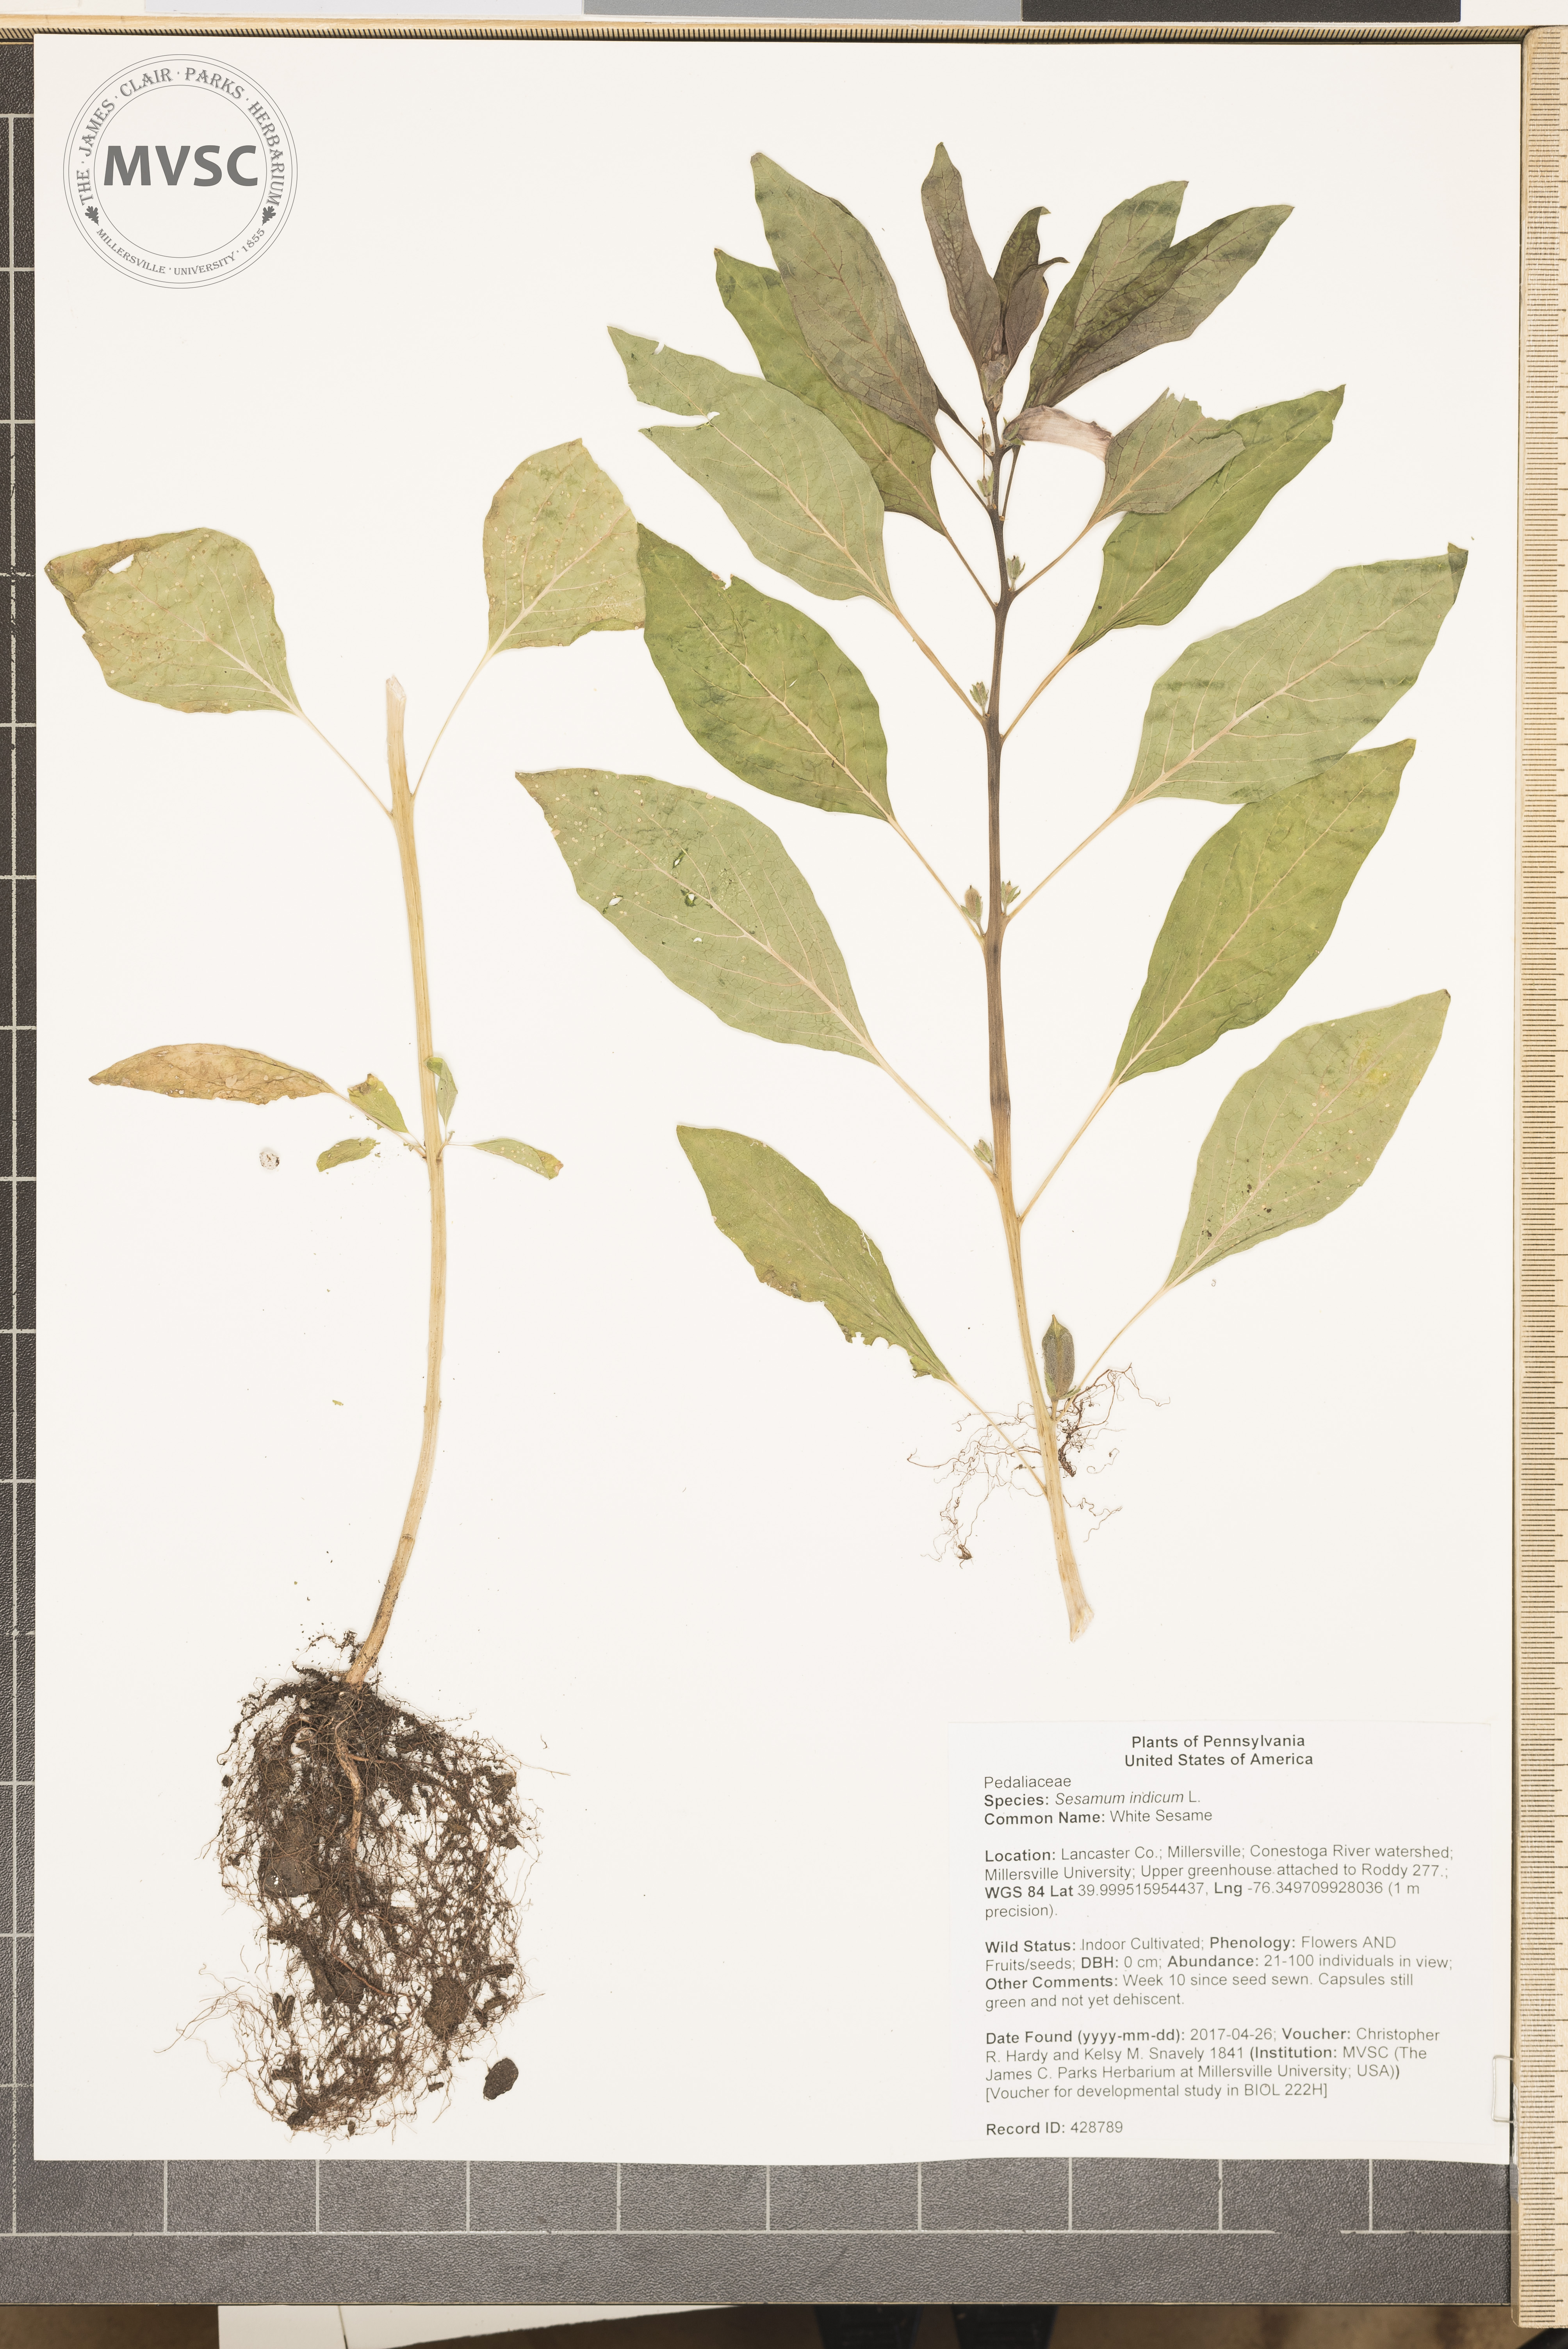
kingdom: Plantae
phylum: Tracheophyta
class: Magnoliopsida
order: Lamiales
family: Pedaliaceae
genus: Sesamum
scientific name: Sesamum indicum
